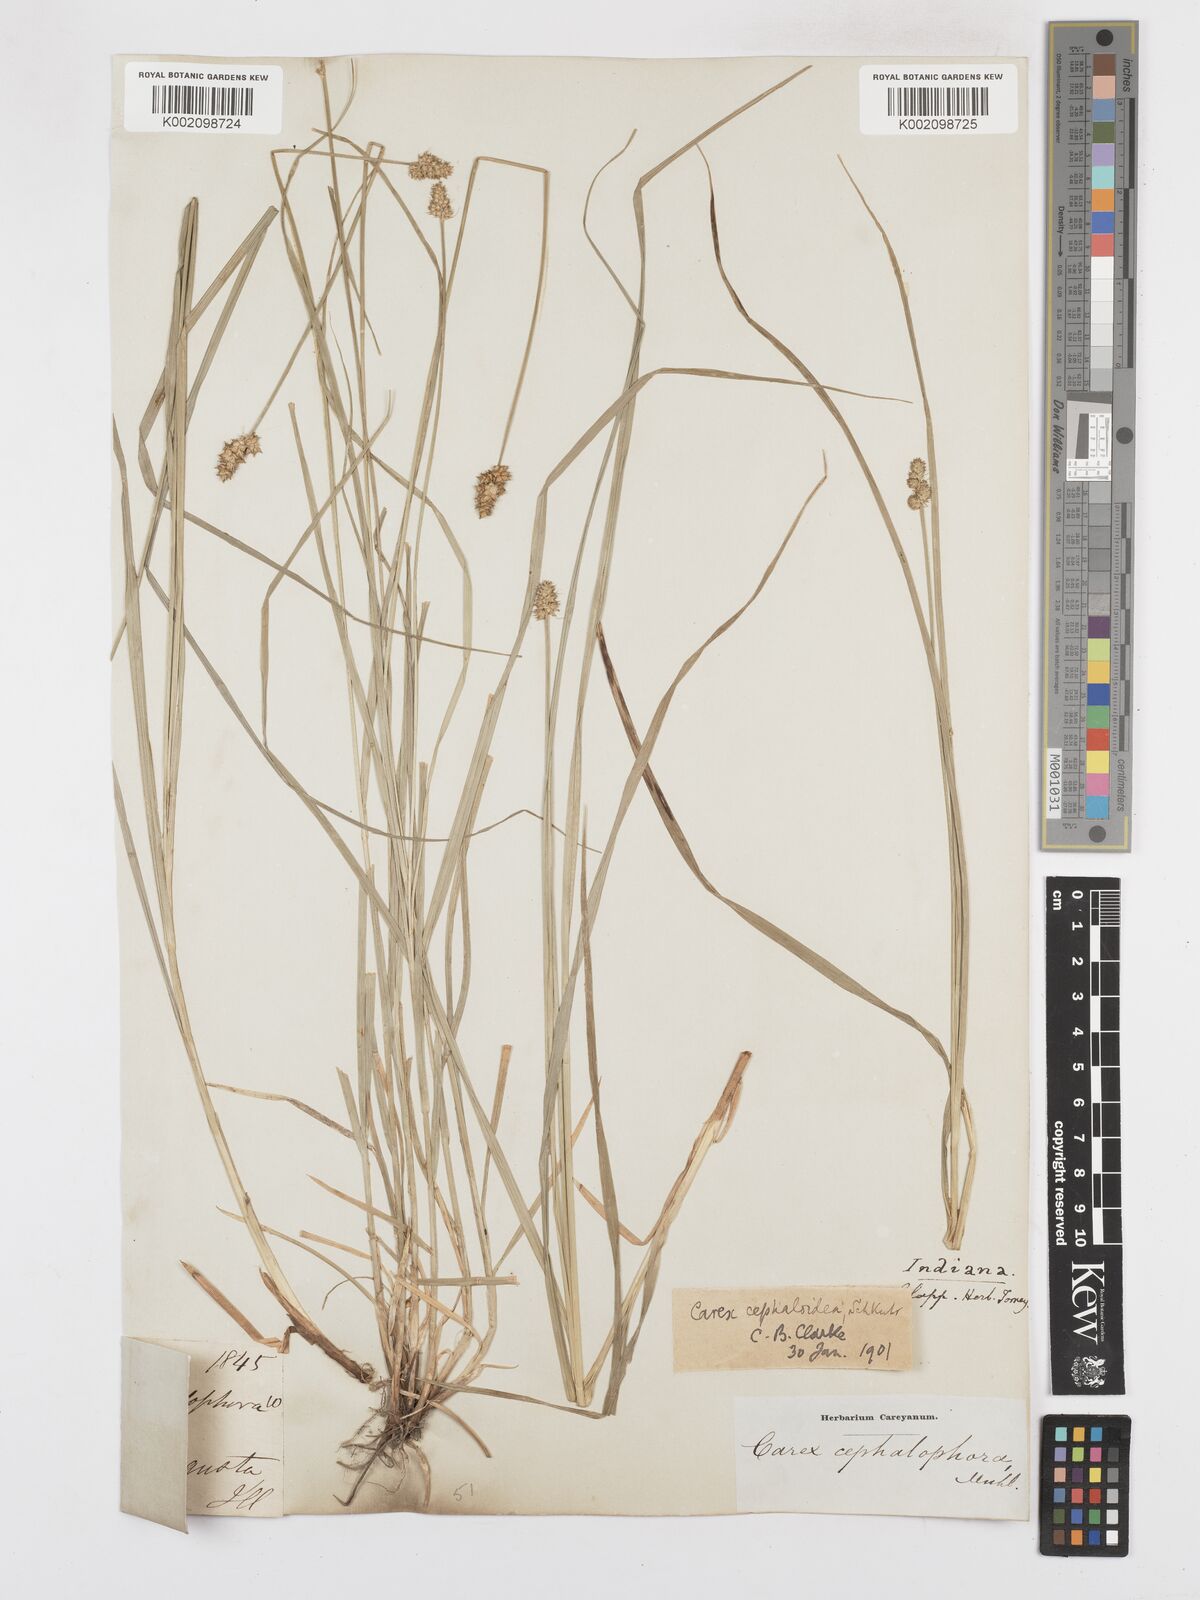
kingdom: Plantae
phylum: Tracheophyta
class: Liliopsida
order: Poales
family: Cyperaceae
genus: Carex
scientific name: Carex cephaloidea
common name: Thin-leaved sedge
